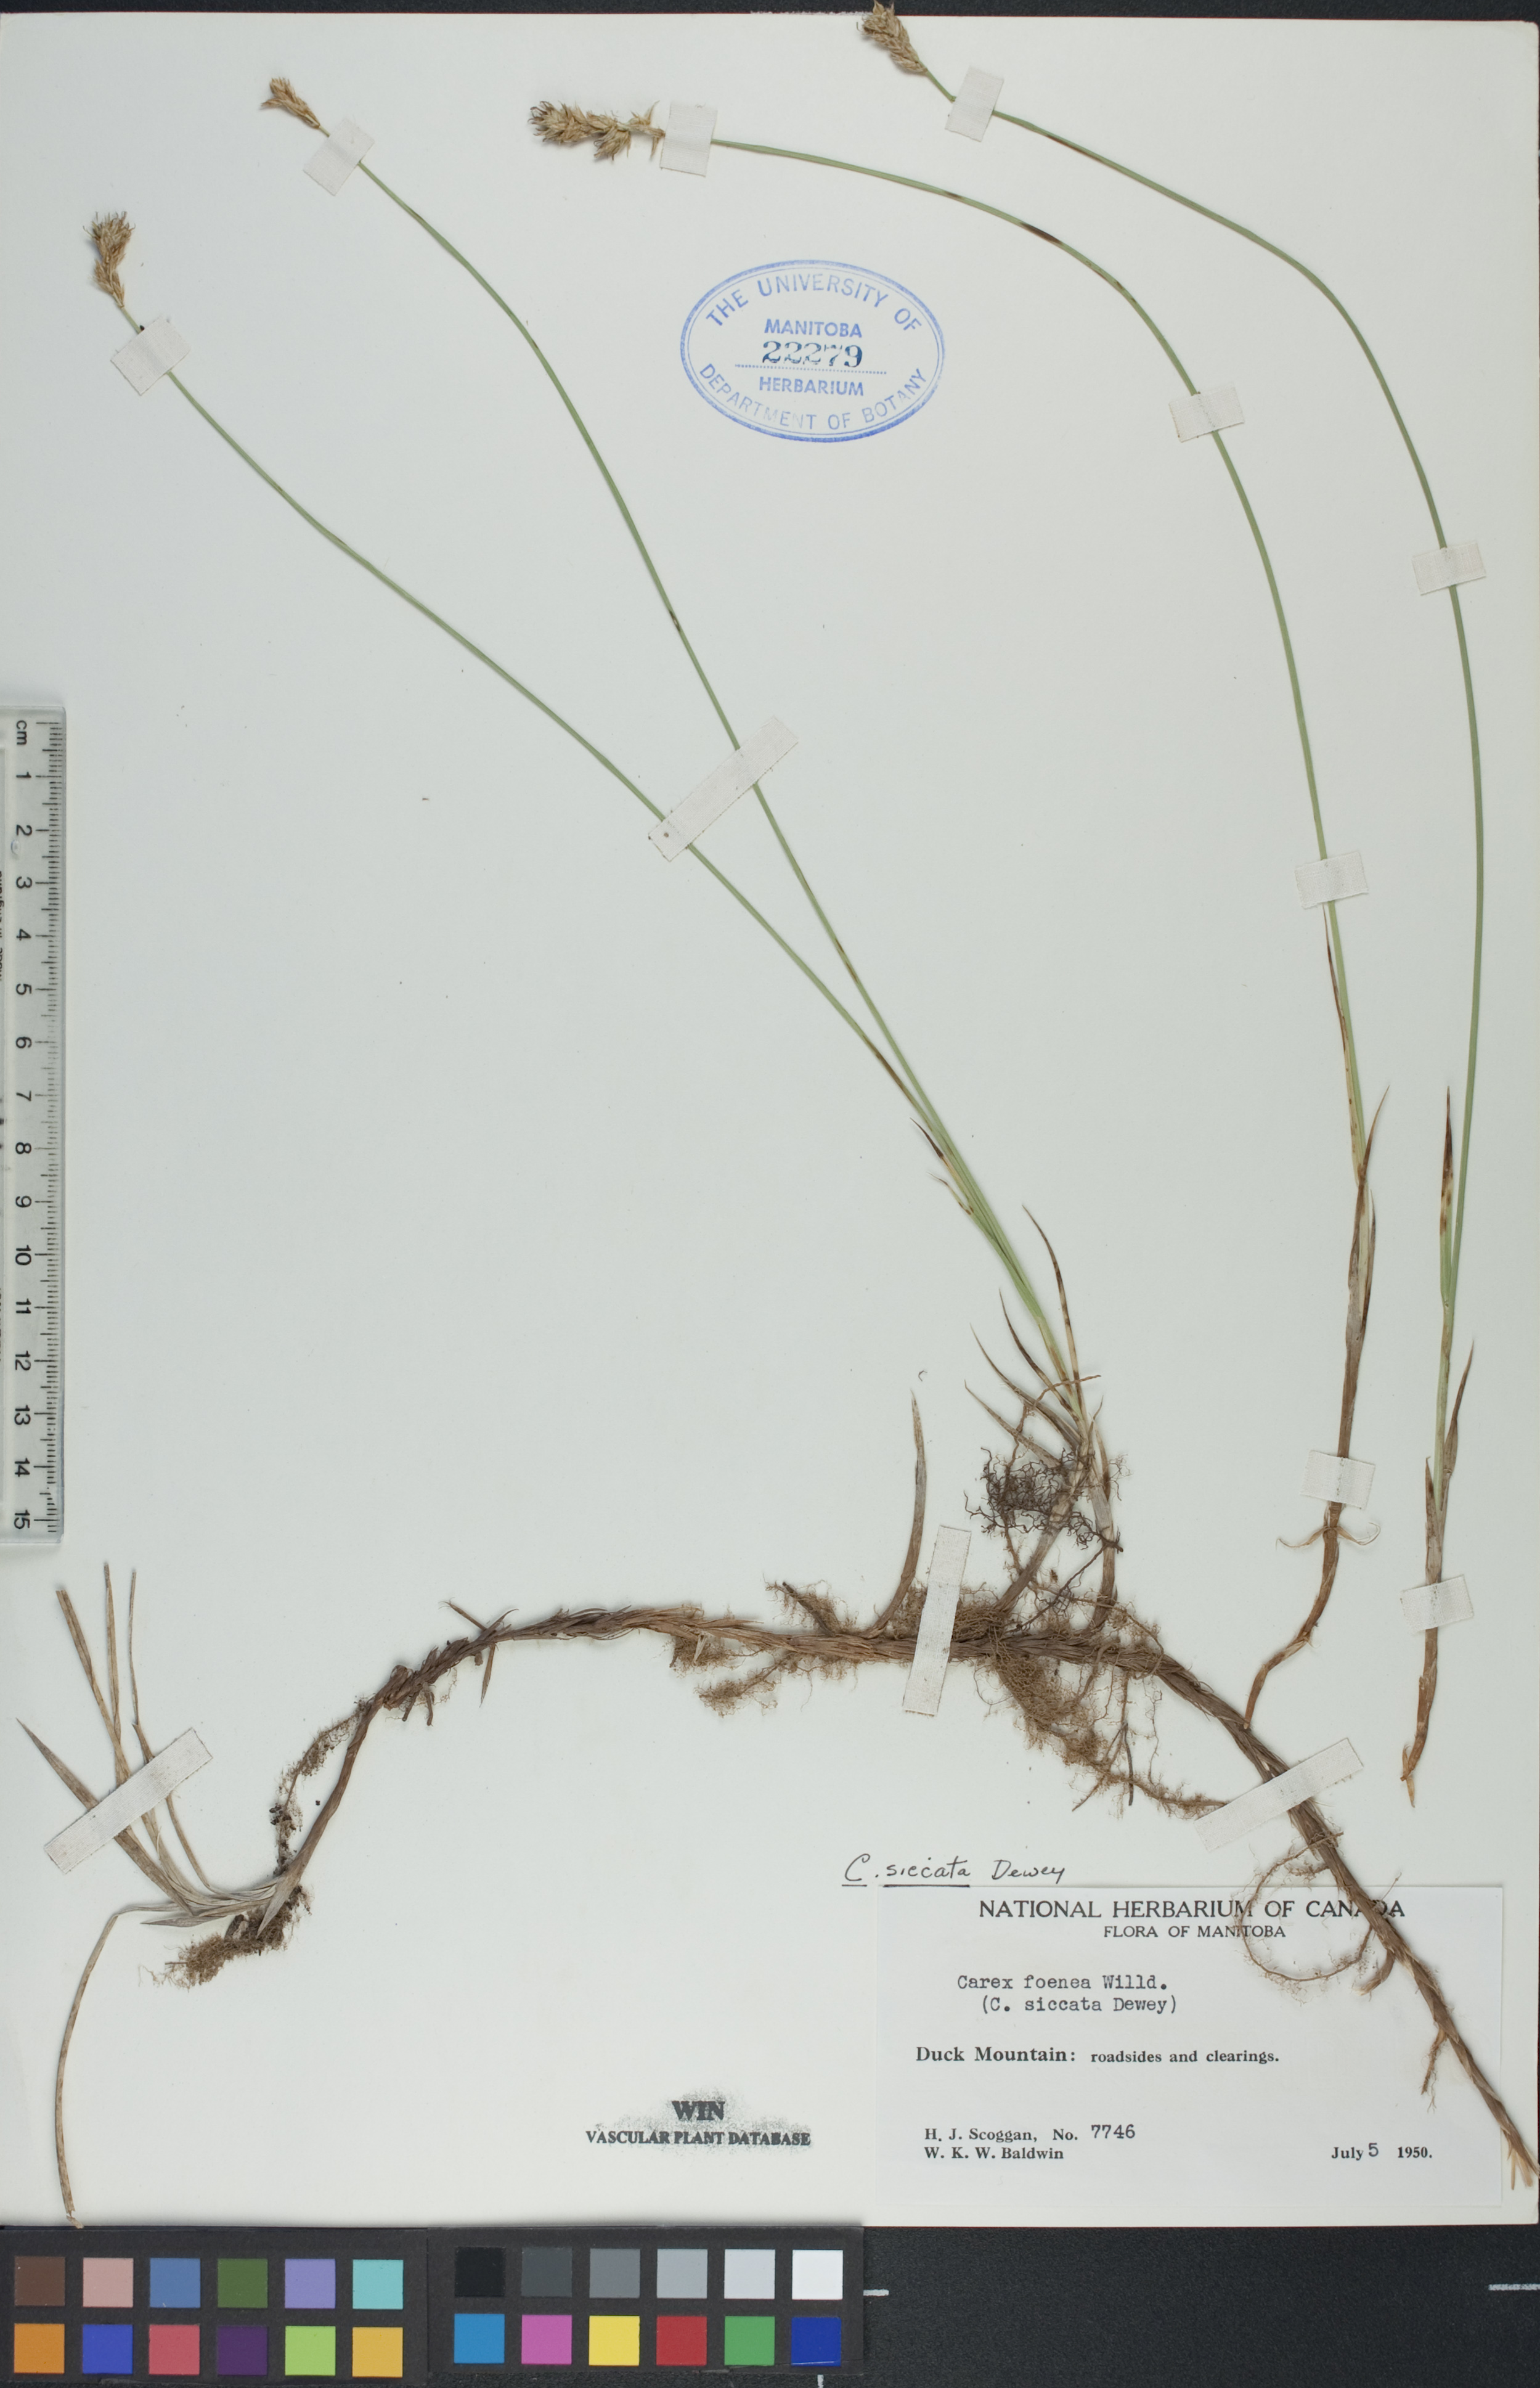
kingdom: Plantae
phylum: Tracheophyta
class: Liliopsida
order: Poales
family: Cyperaceae
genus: Carex
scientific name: Carex siccata
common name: Dry sedge
